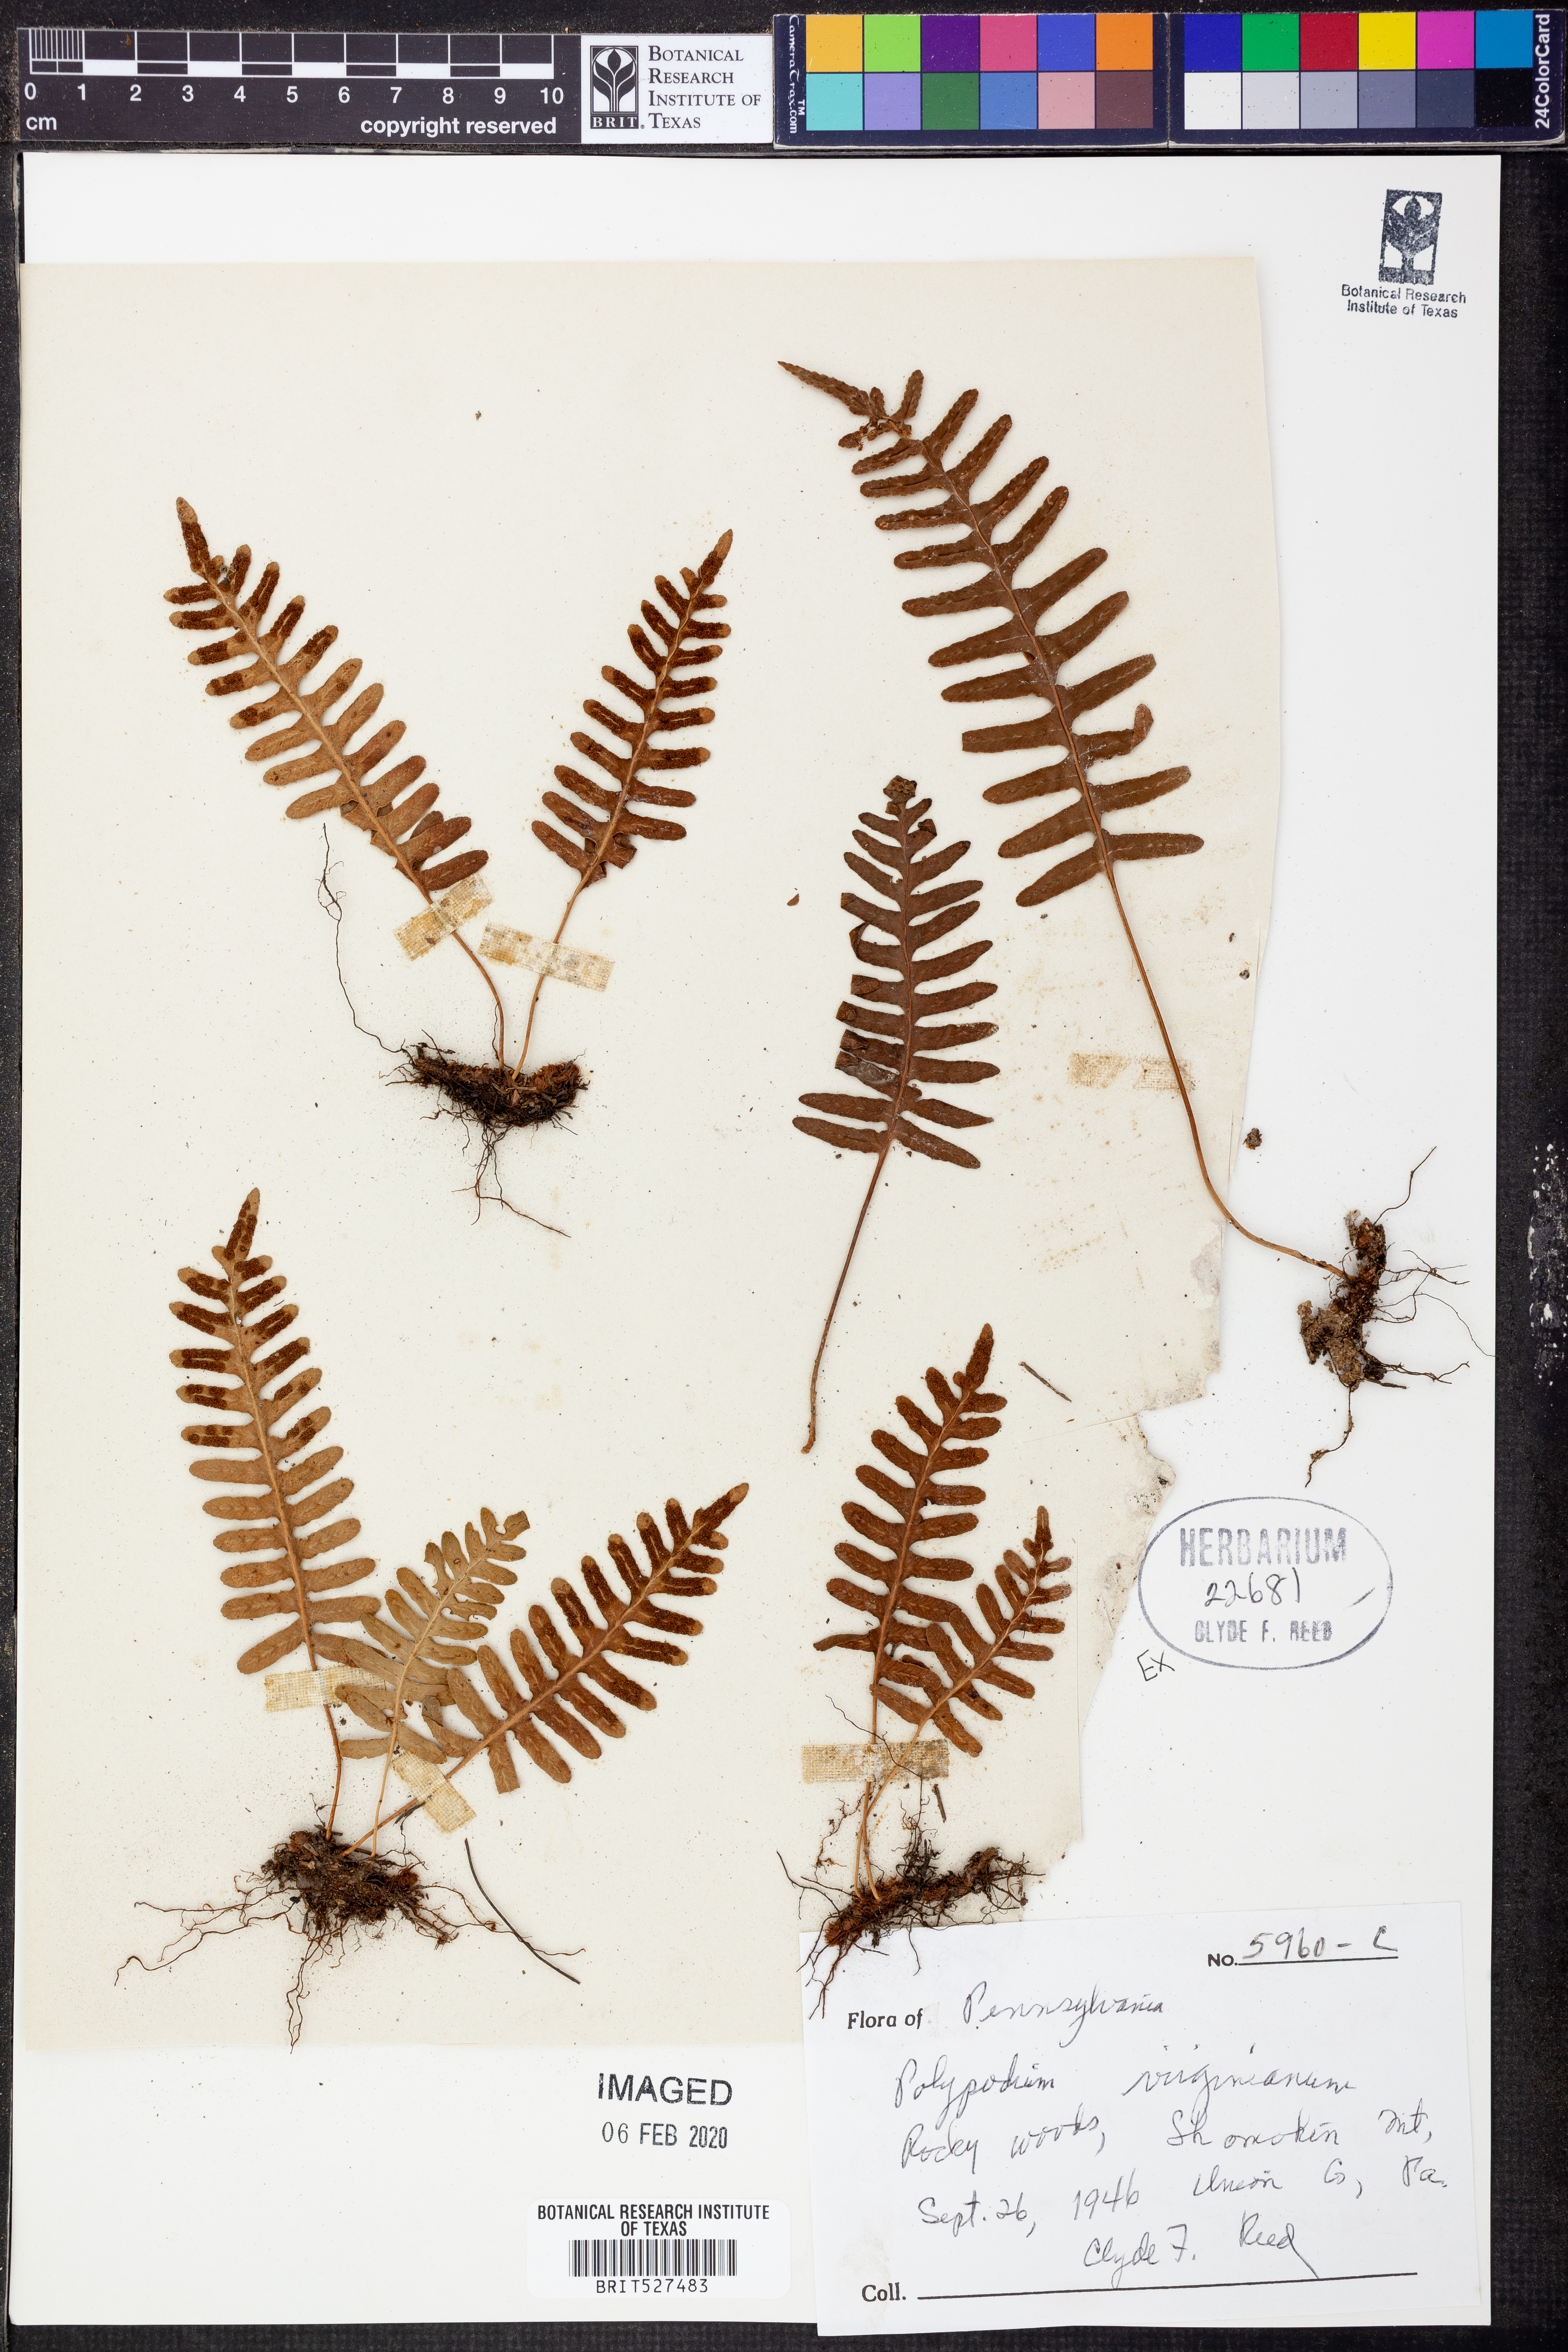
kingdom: Plantae
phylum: Tracheophyta
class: Polypodiopsida
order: Polypodiales
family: Polypodiaceae
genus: Polypodium
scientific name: Polypodium virginianum
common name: American wall fern
